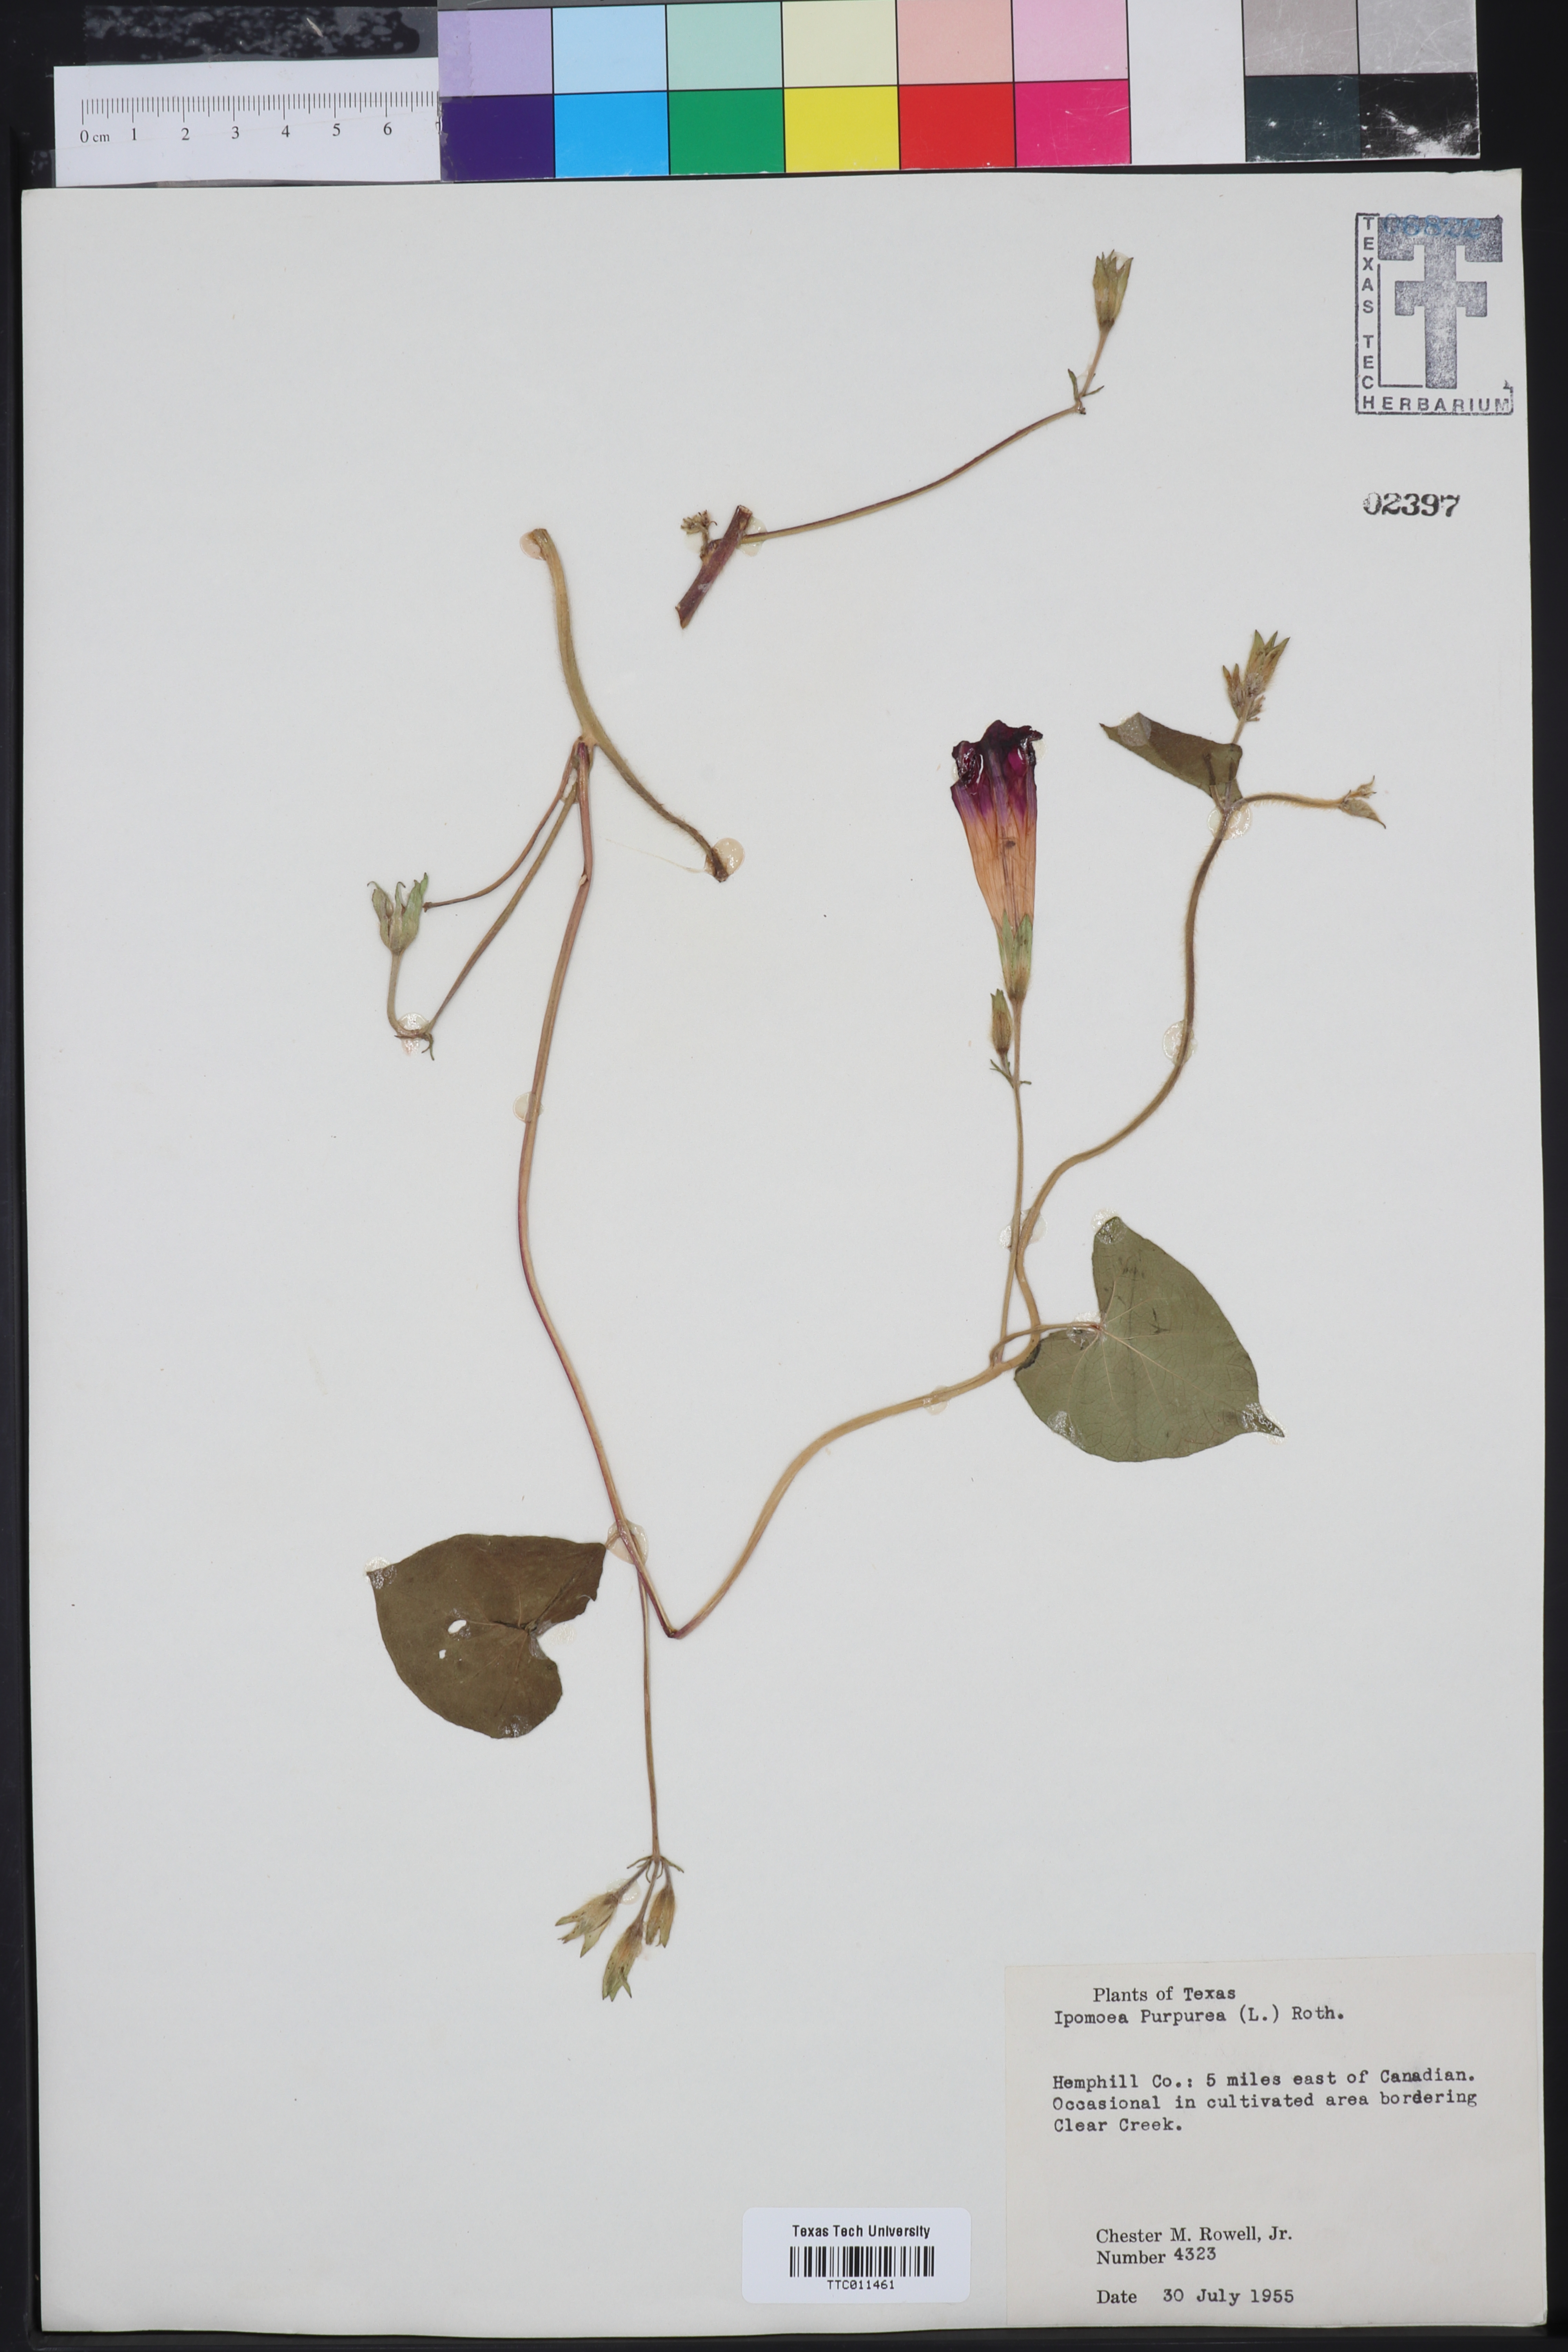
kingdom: Plantae
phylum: Tracheophyta
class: Magnoliopsida
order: Solanales
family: Convolvulaceae
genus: Ipomoea
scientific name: Ipomoea purpurea
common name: Common morning-glory
